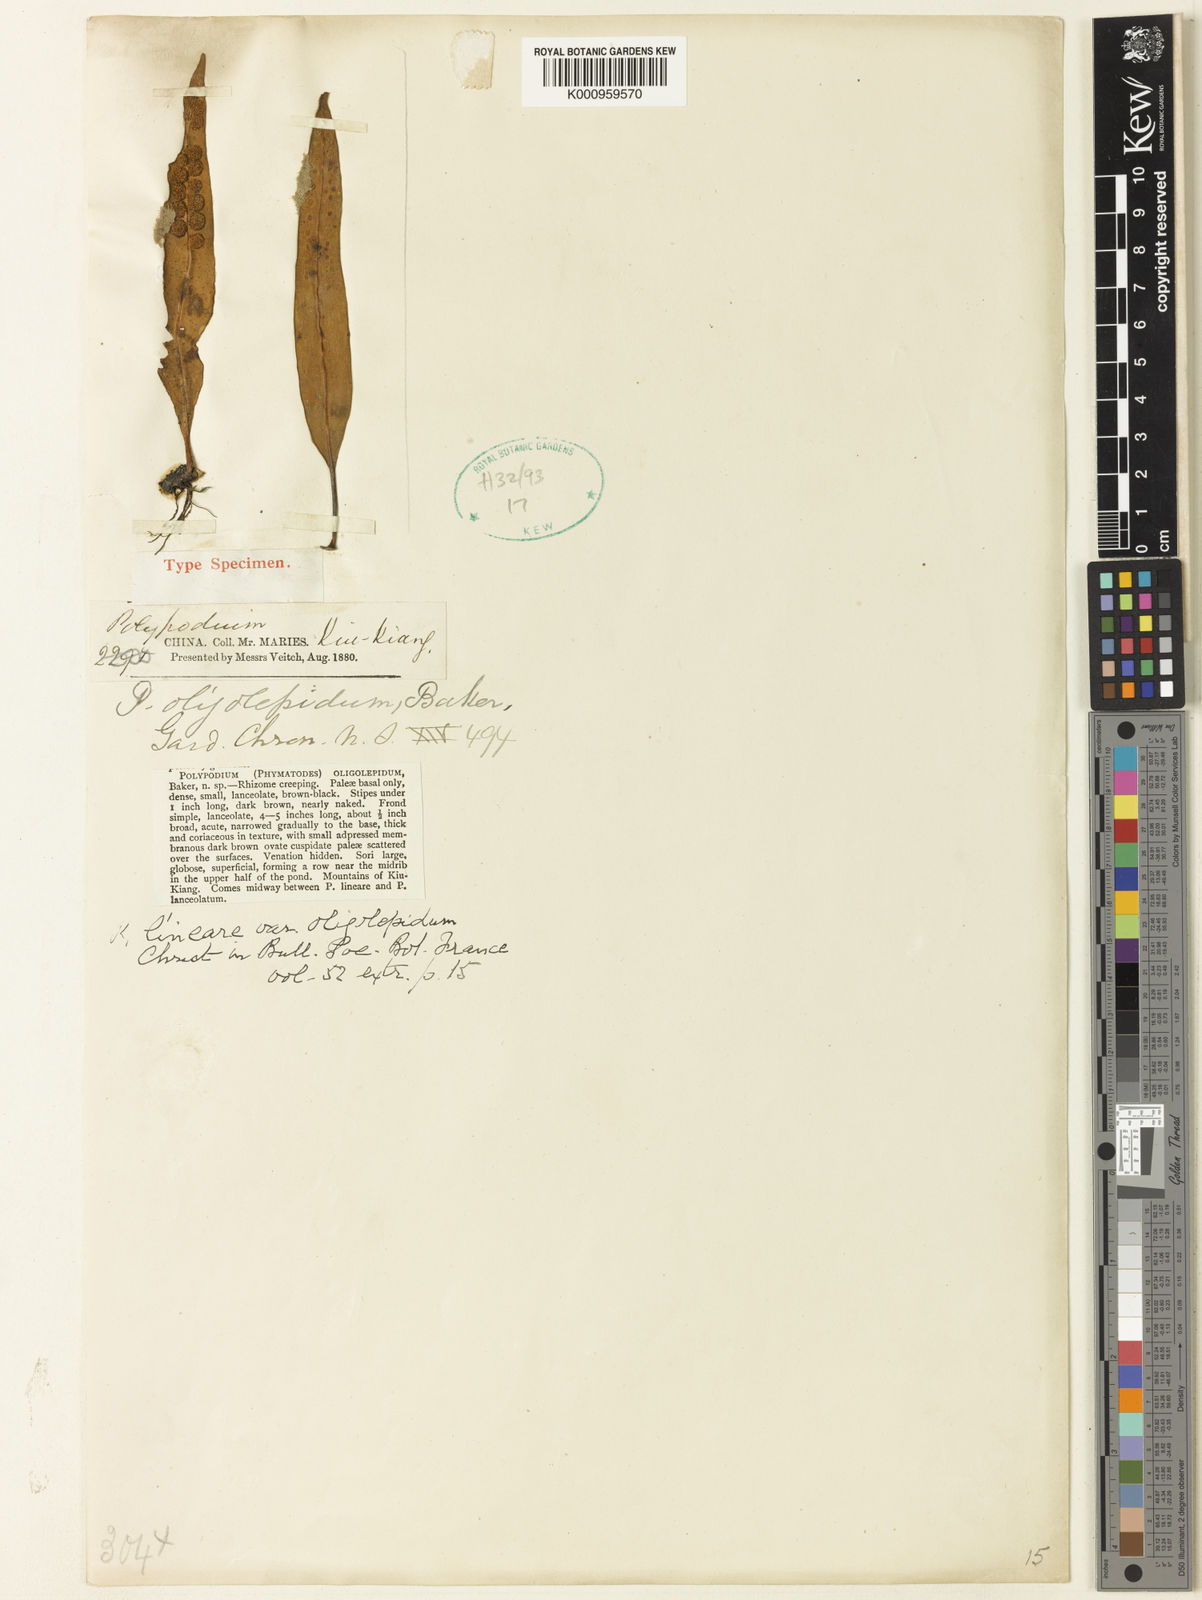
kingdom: Plantae
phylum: Tracheophyta
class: Polypodiopsida
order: Polypodiales
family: Polypodiaceae
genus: Lepisorus
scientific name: Lepisorus oligolepidus
